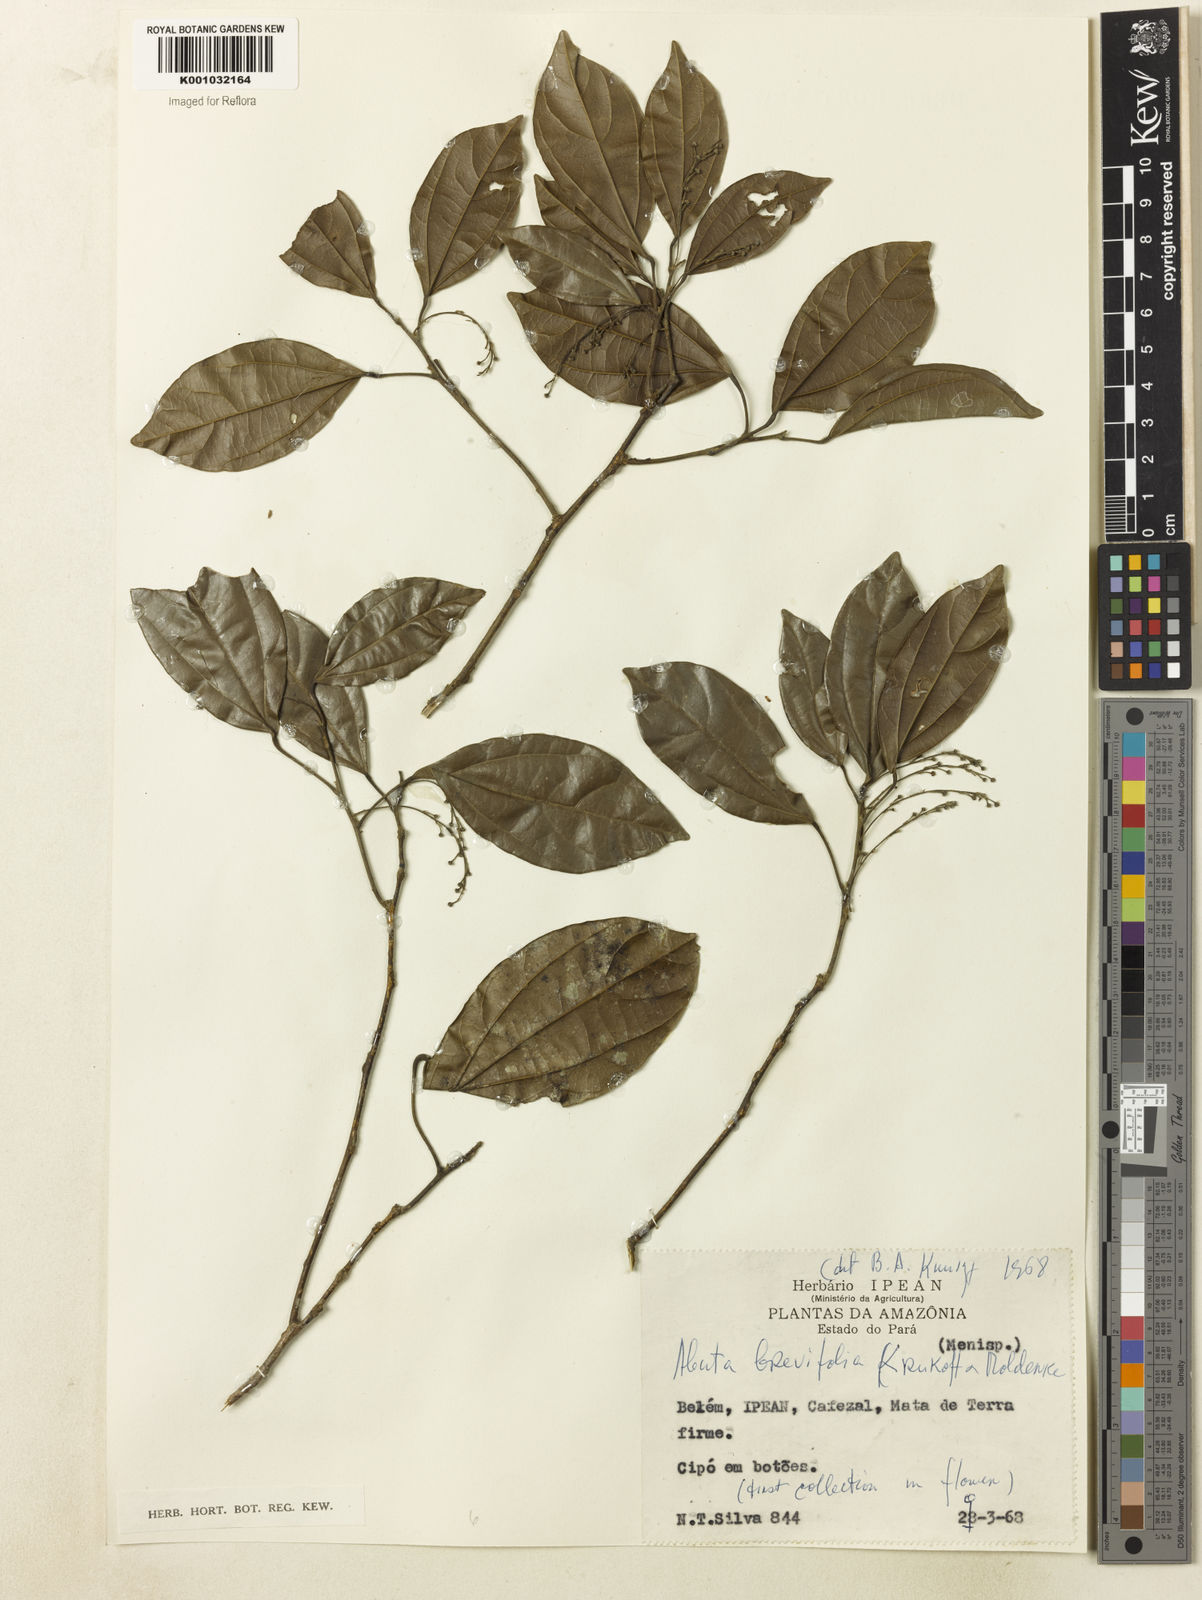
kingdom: Plantae
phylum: Tracheophyta
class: Magnoliopsida
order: Ranunculales
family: Menispermaceae
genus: Abuta
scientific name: Abuta brevifolia
